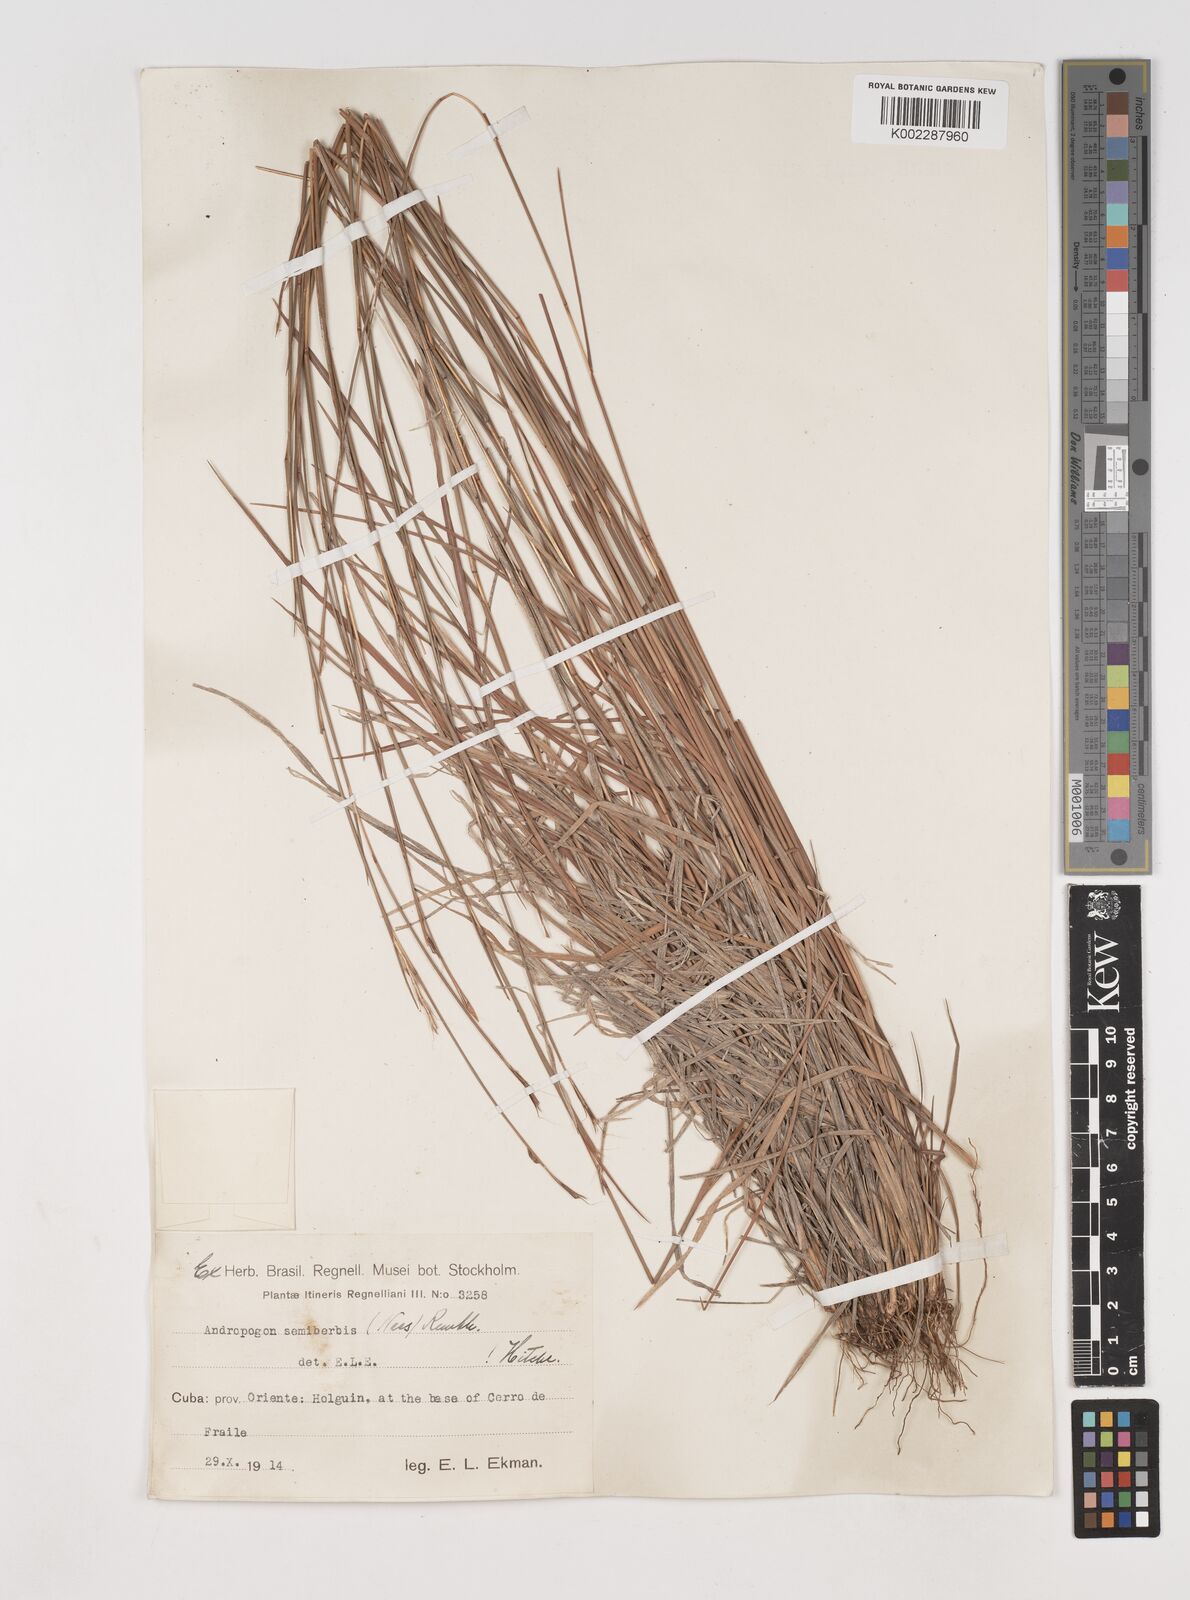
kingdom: Plantae
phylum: Tracheophyta
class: Liliopsida
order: Poales
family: Poaceae
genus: Schizachyrium
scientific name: Schizachyrium sanguineum
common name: Crimson bluestem
